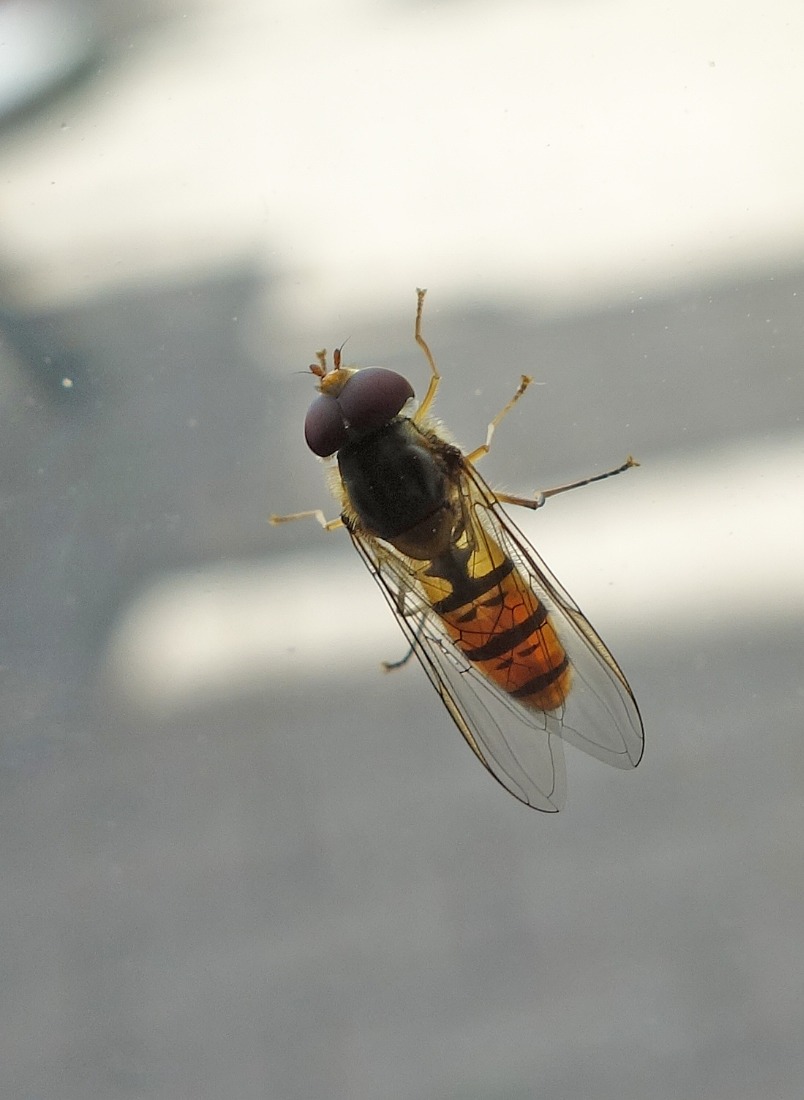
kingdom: Animalia
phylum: Arthropoda
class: Insecta
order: Diptera
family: Syrphidae
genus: Episyrphus
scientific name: Episyrphus balteatus
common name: Dobbeltbåndet svirreflue
